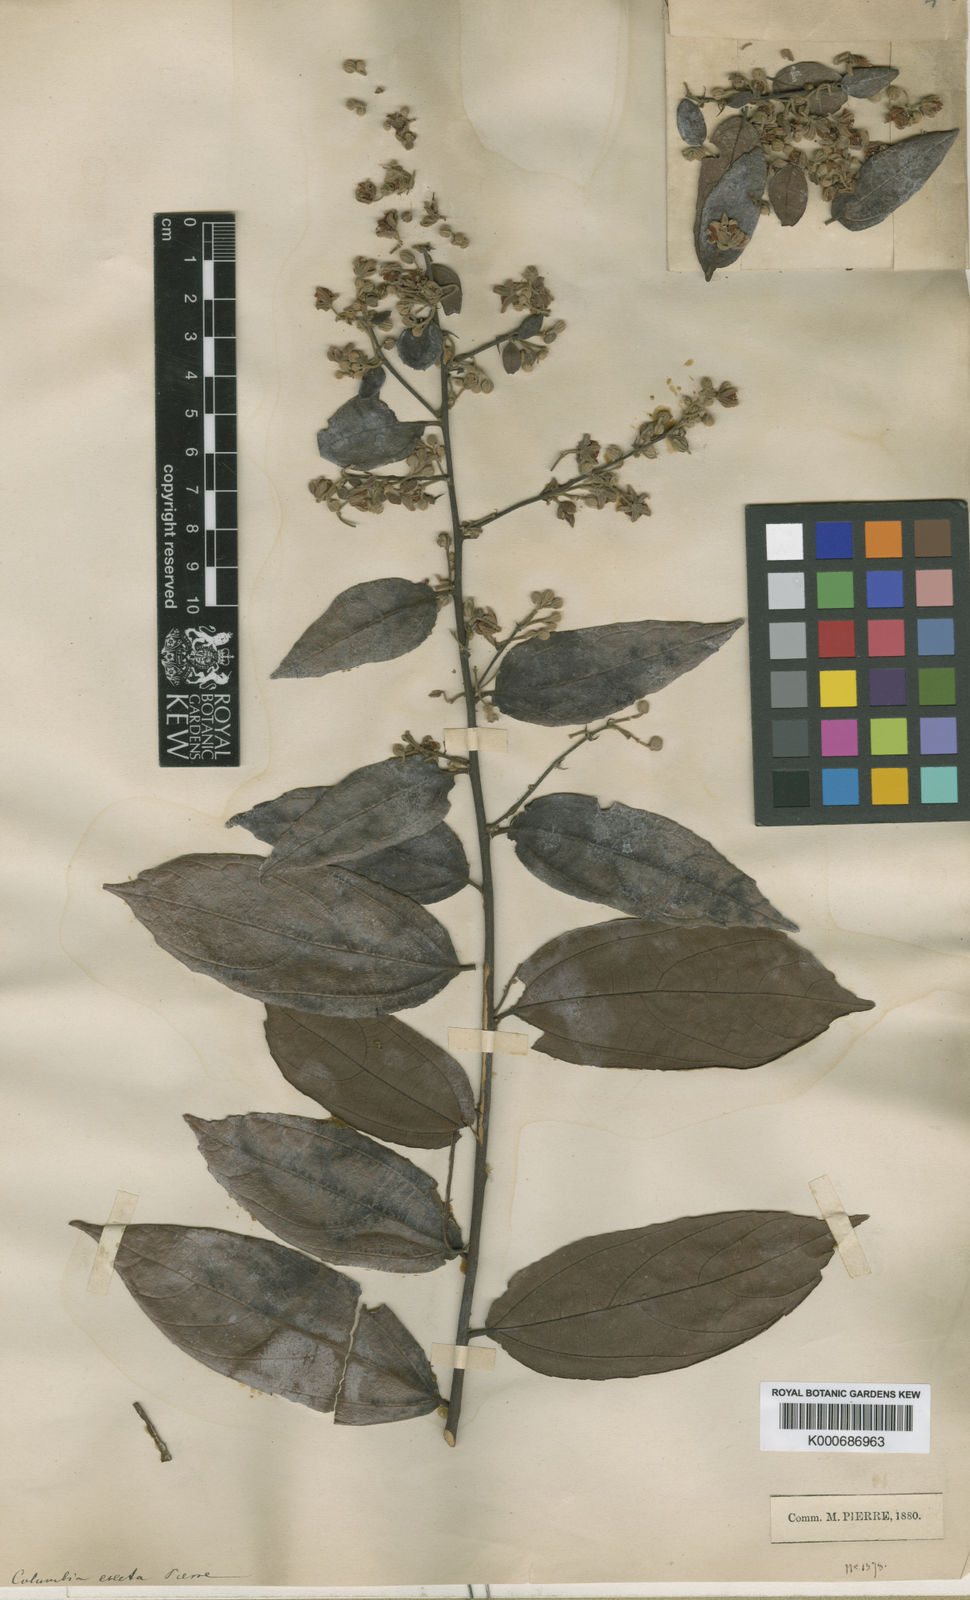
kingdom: Plantae
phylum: Tracheophyta
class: Magnoliopsida
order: Malvales
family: Malvaceae
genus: Colona
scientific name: Colona
